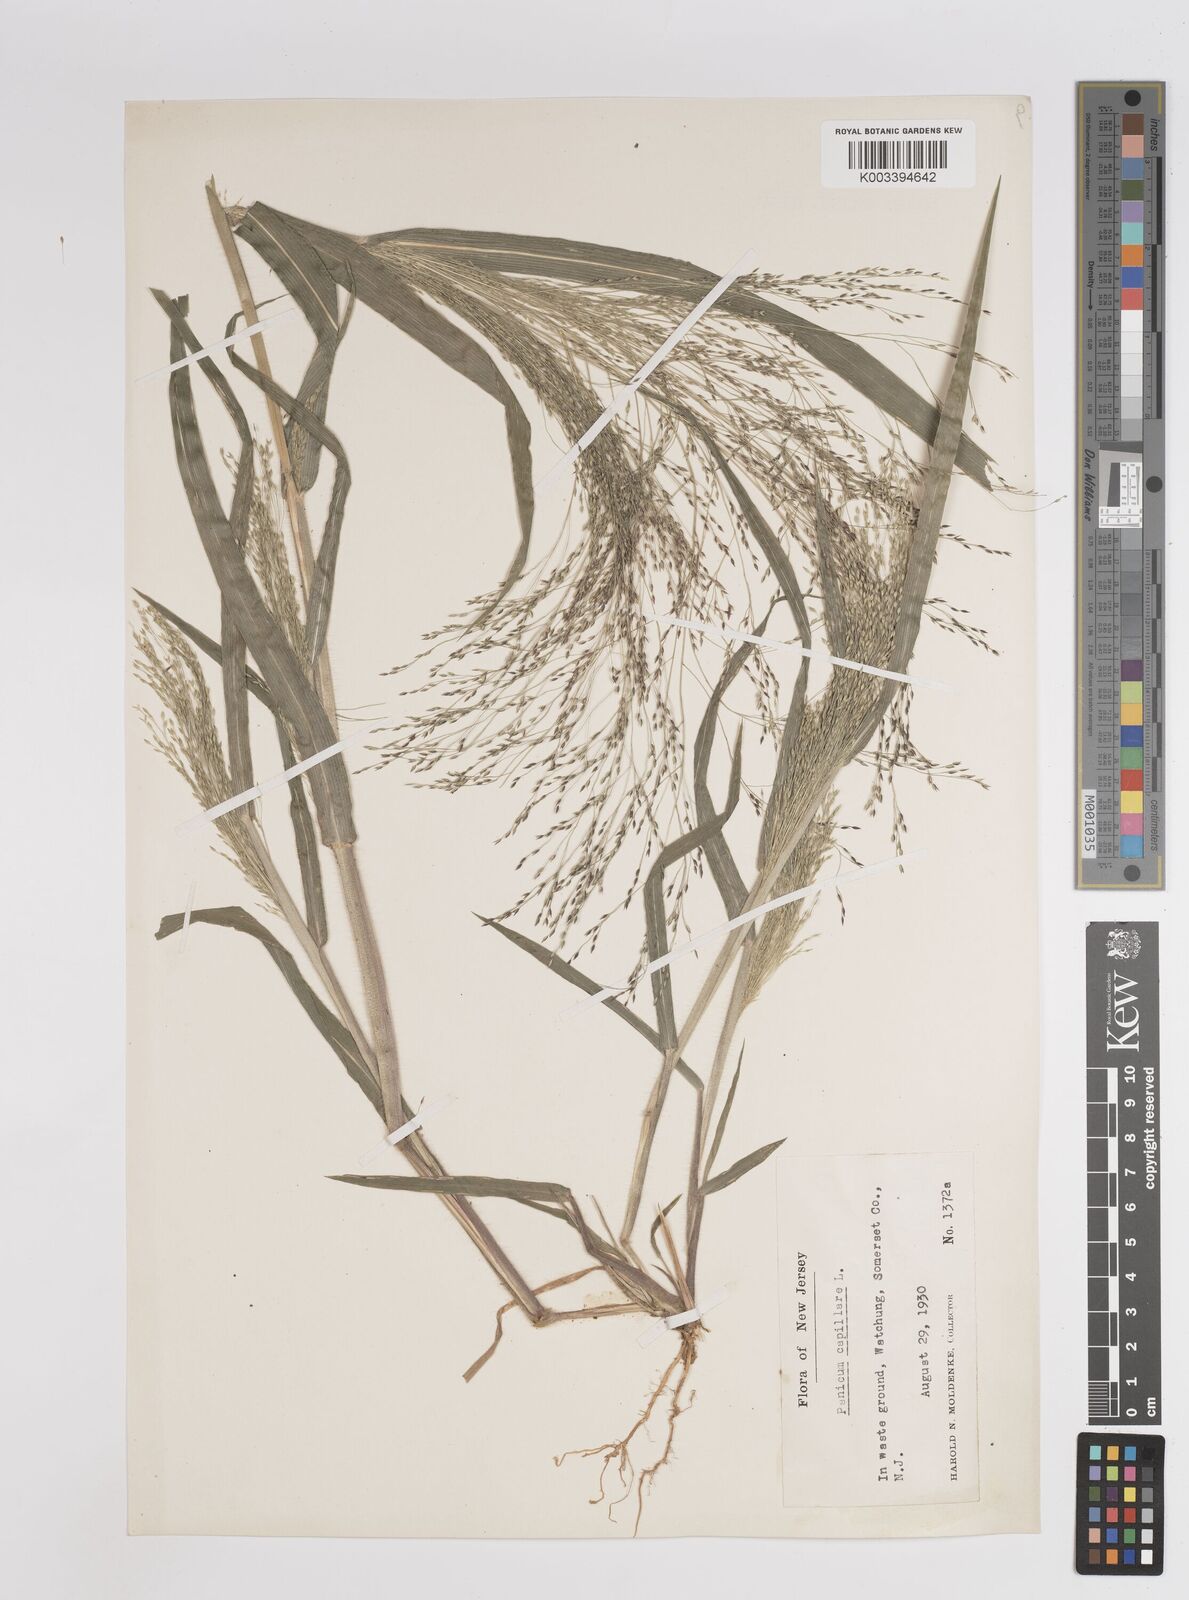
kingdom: Plantae
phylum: Tracheophyta
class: Liliopsida
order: Poales
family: Poaceae
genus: Panicum
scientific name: Panicum capillare
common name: Witch-grass
